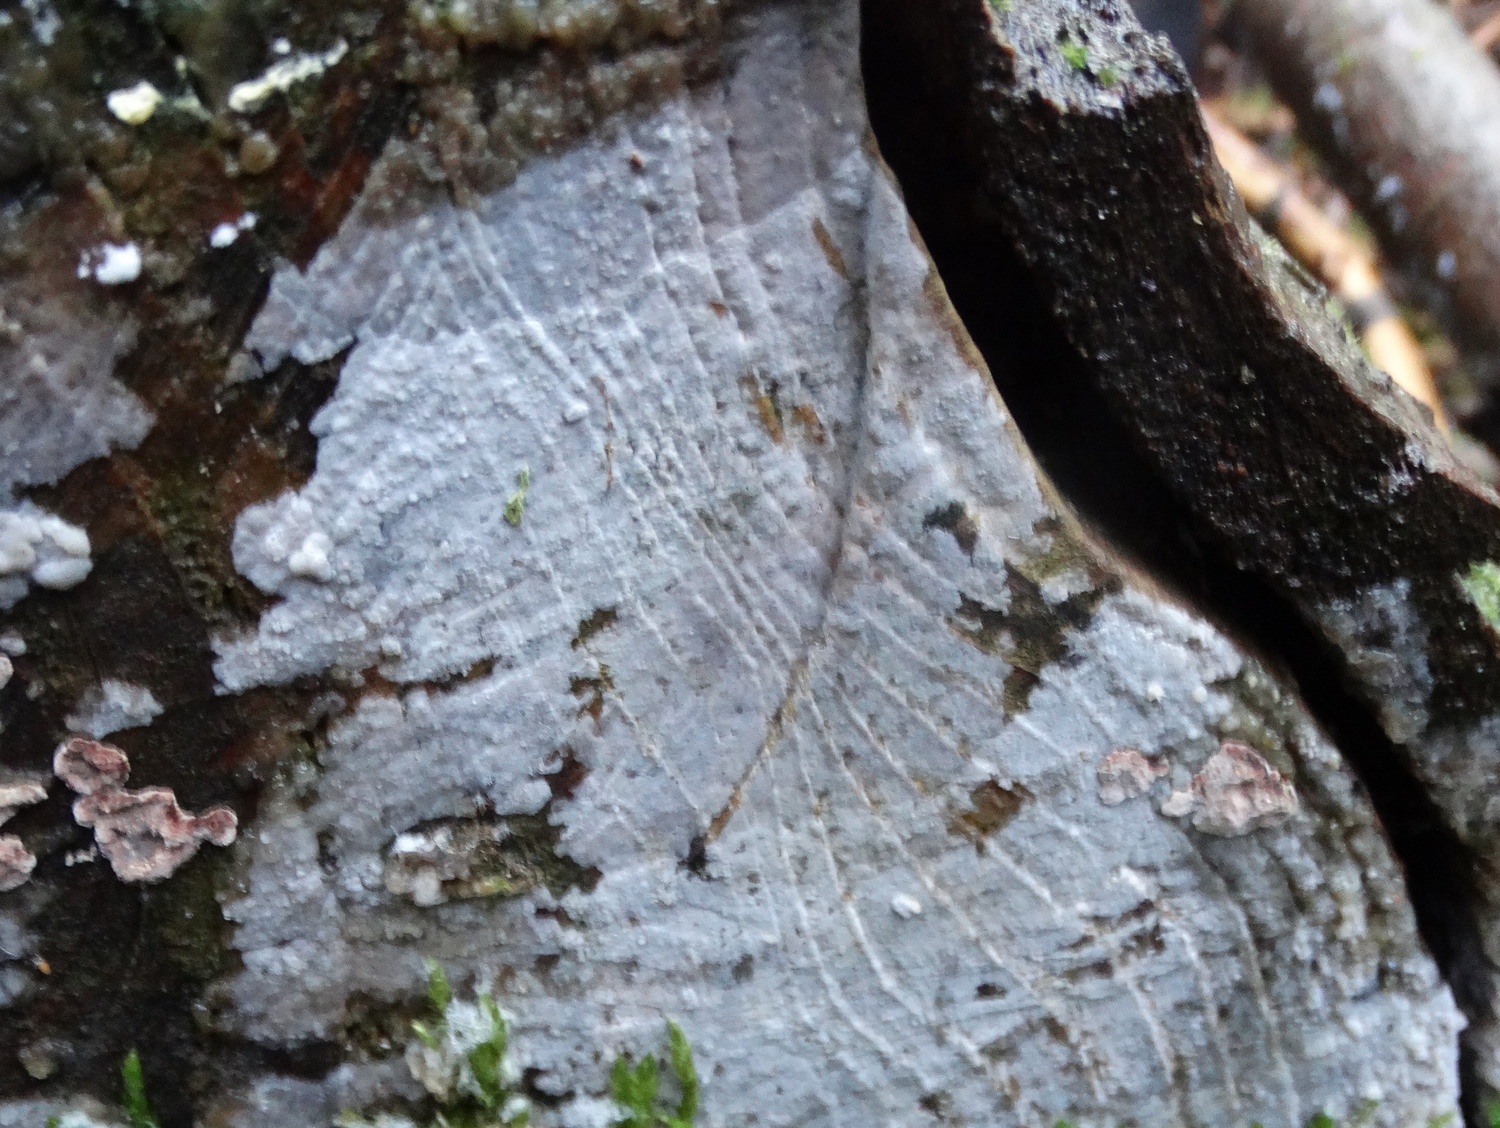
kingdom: Fungi
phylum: Basidiomycota
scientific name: Basidiomycota
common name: basidiesvampe
